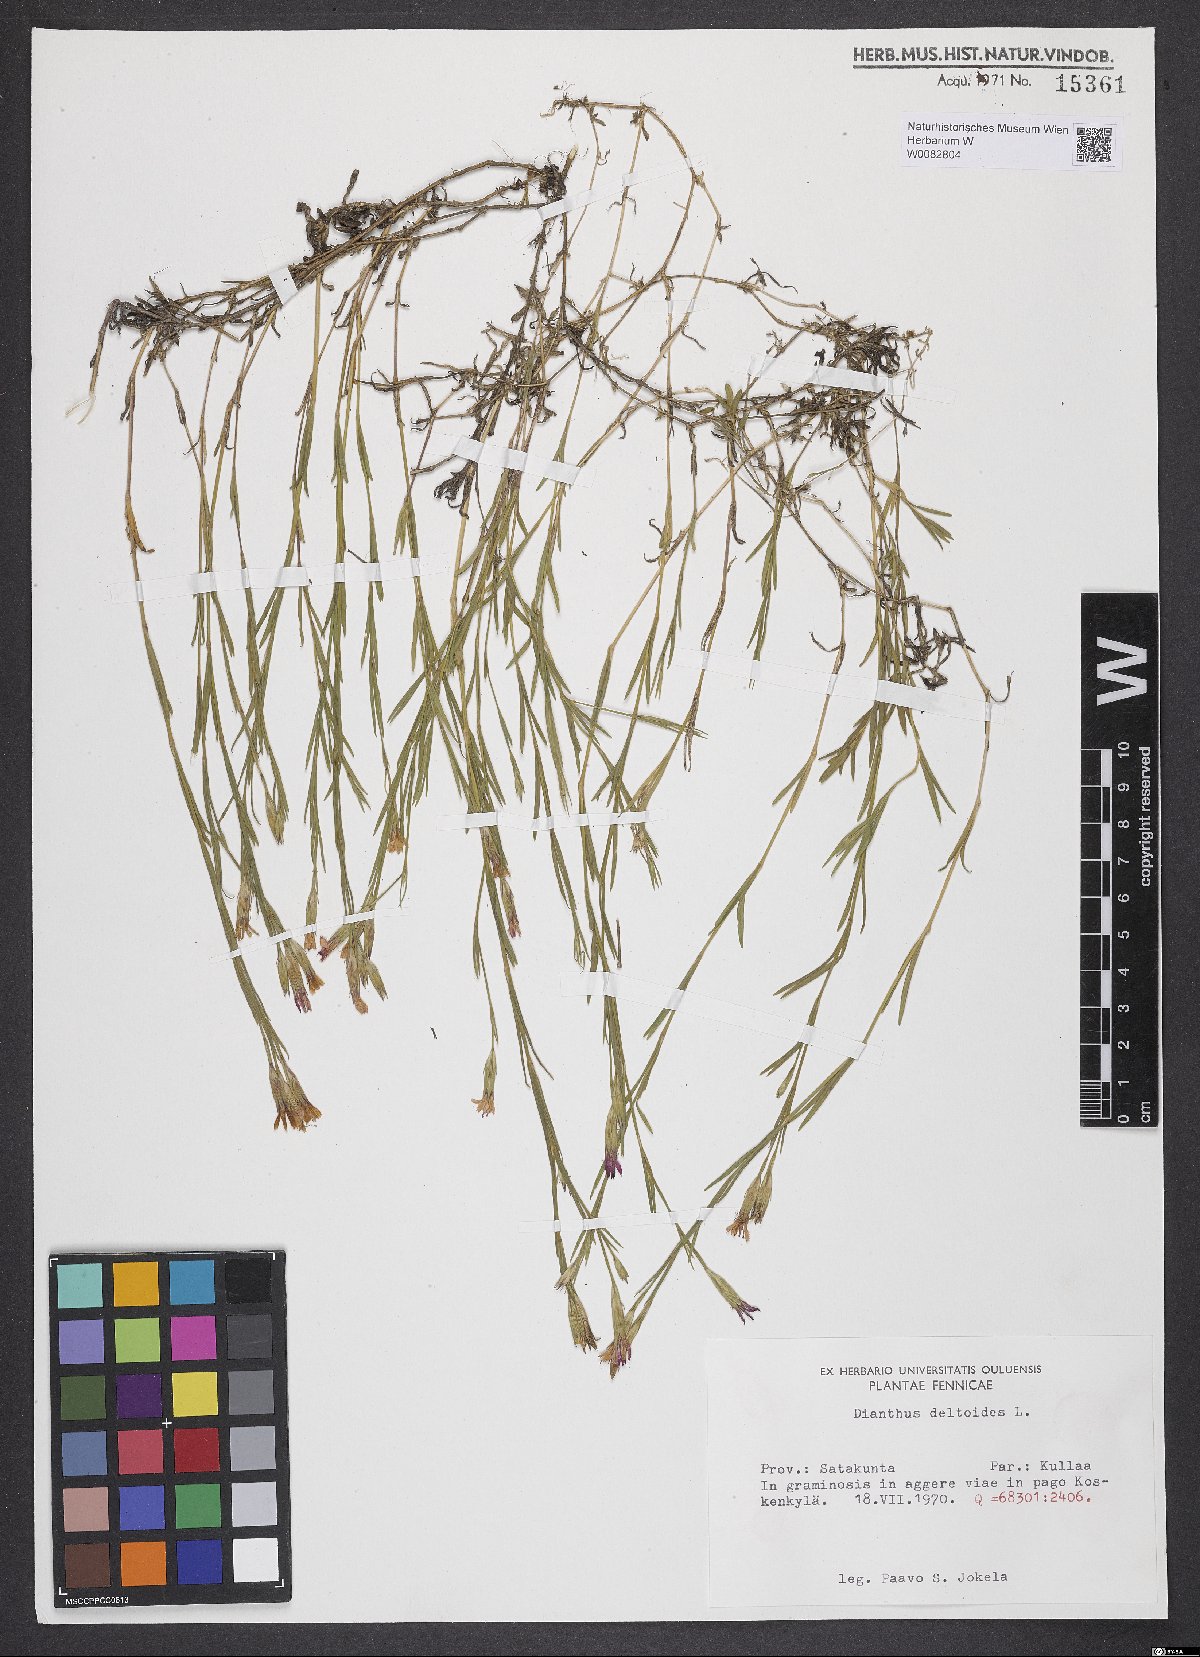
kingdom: Plantae
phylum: Tracheophyta
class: Magnoliopsida
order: Caryophyllales
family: Caryophyllaceae
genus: Dianthus
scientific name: Dianthus deltoides
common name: Maiden pink
